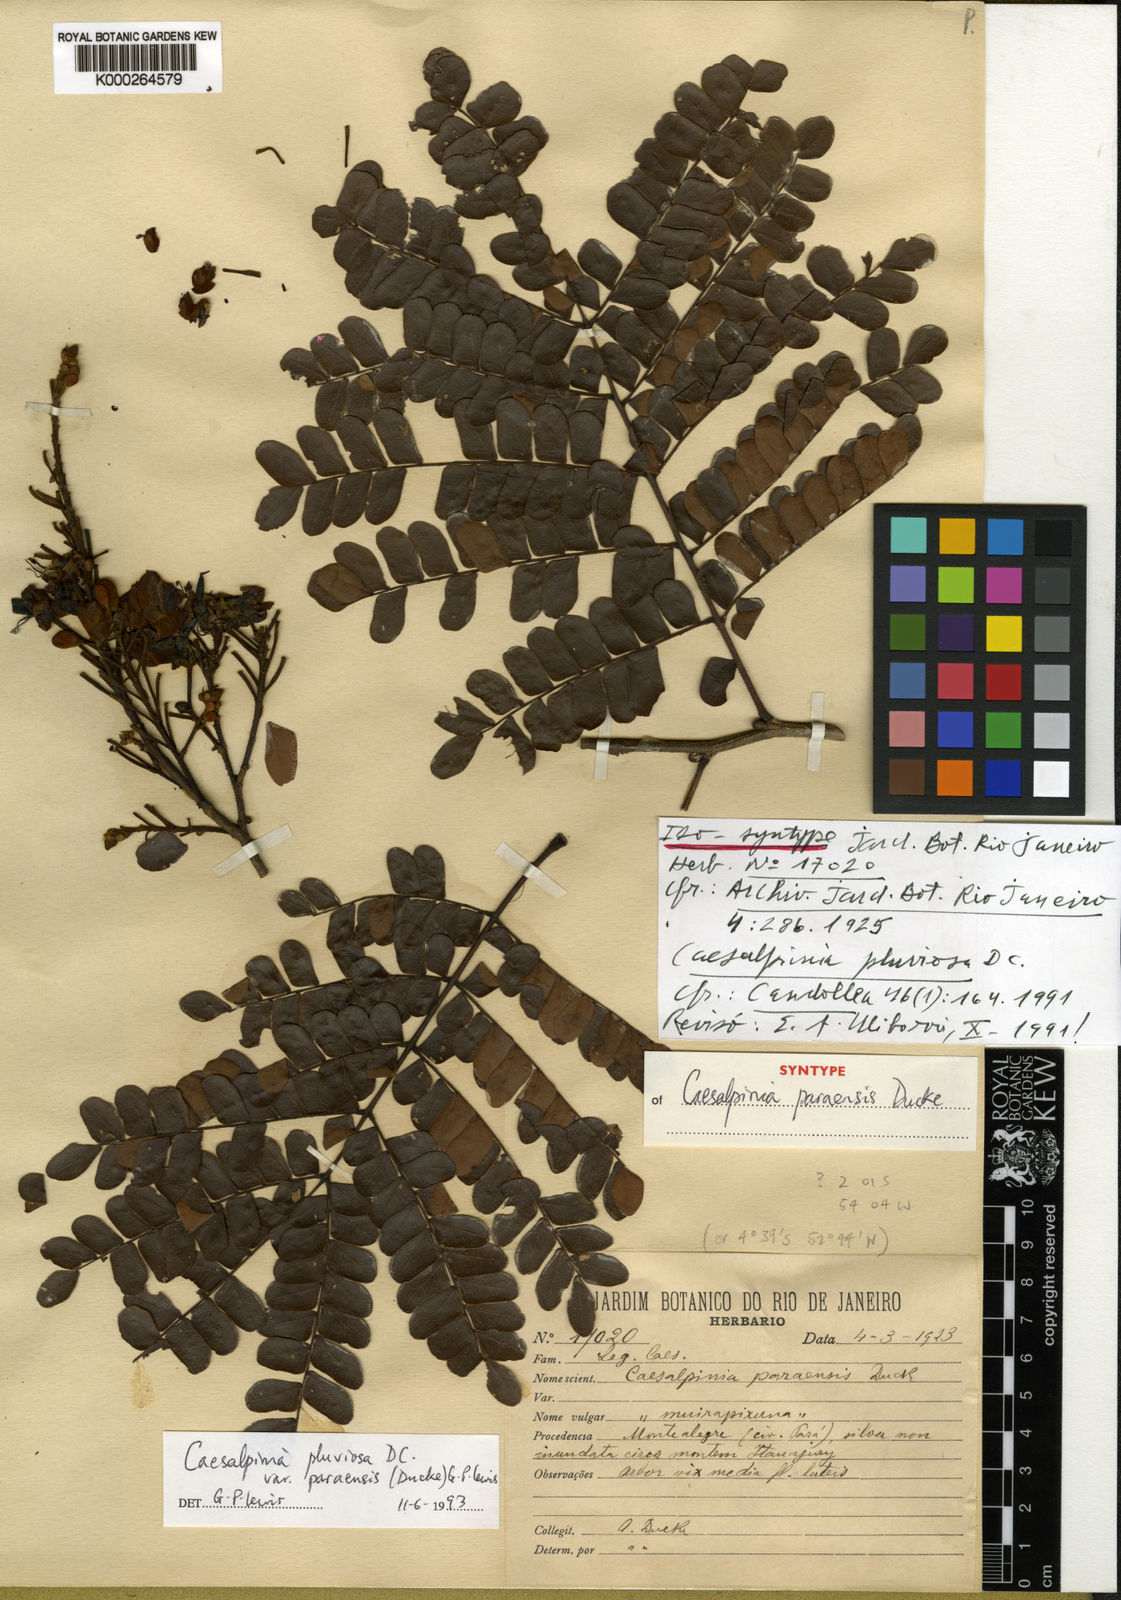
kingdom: Plantae
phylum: Tracheophyta
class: Magnoliopsida
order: Fabales
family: Fabaceae
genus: Cenostigma
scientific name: Cenostigma pluviosum
